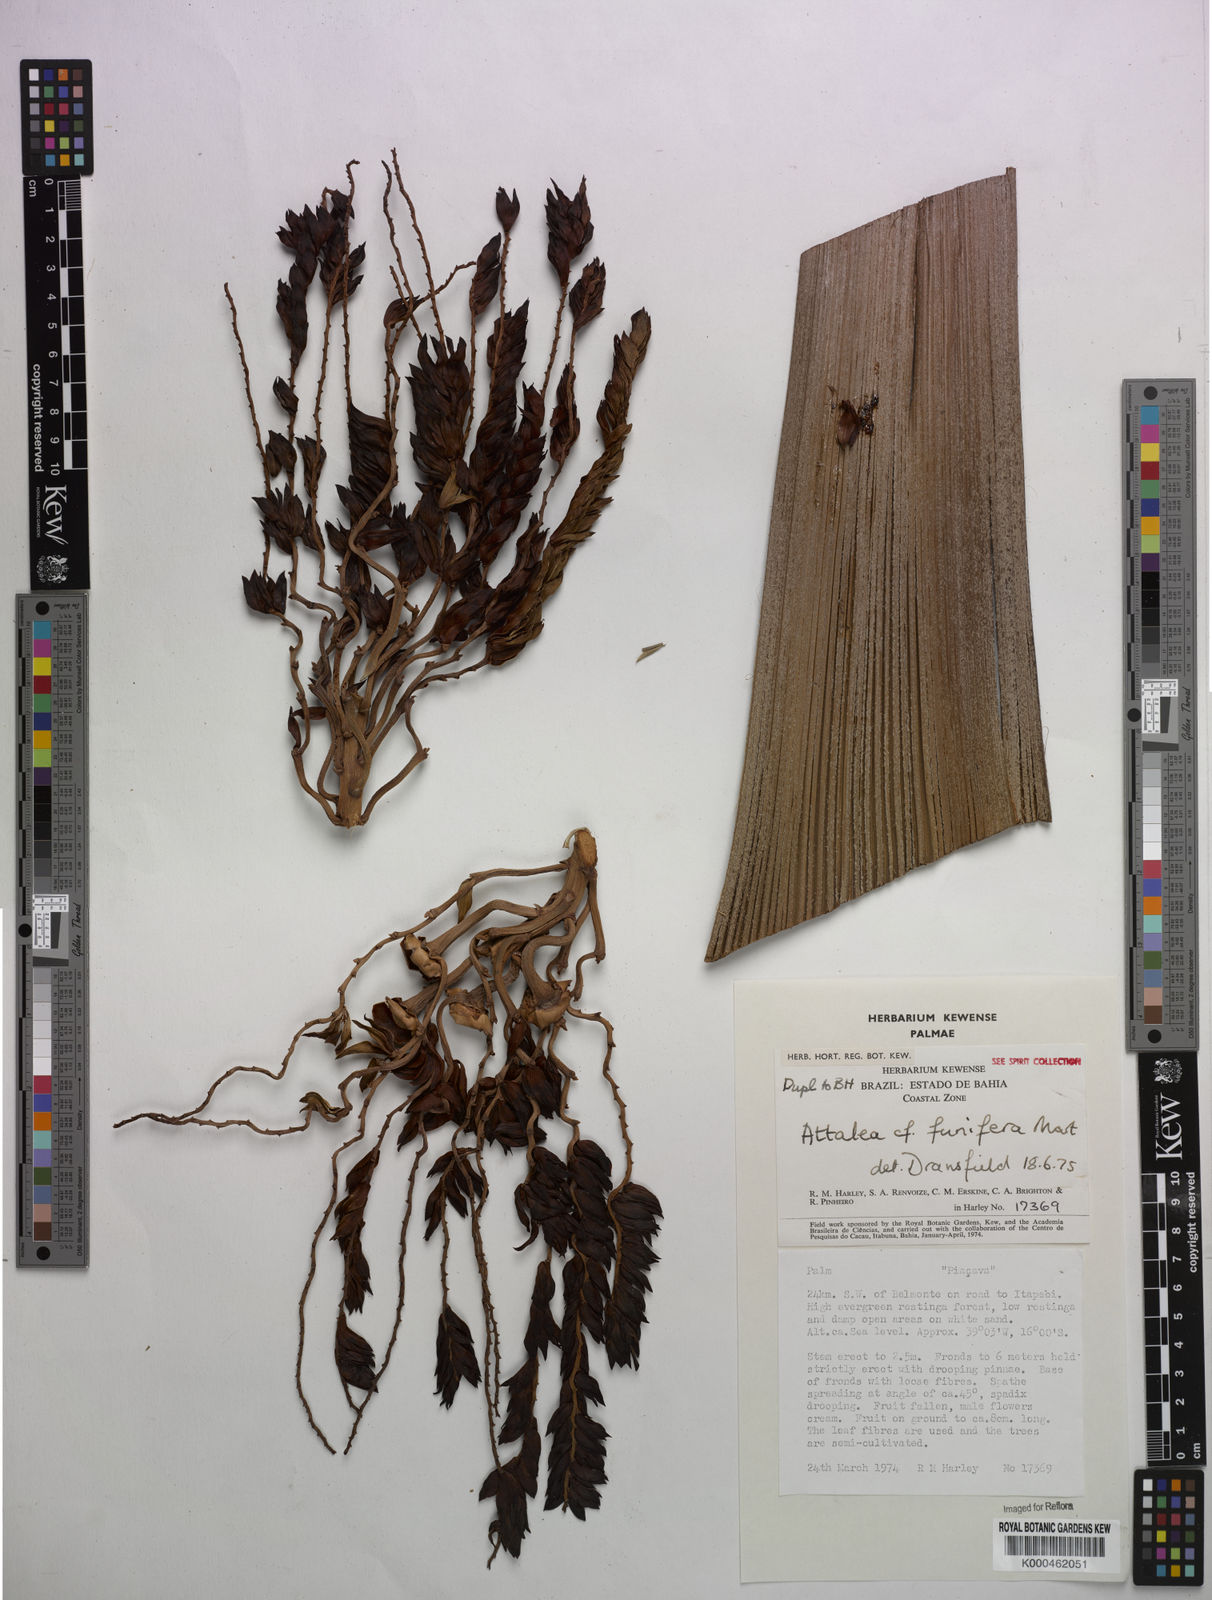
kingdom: Plantae
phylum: Tracheophyta
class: Liliopsida
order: Arecales
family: Arecaceae
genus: Attalea
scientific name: Attalea funifera
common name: Piassava palm
